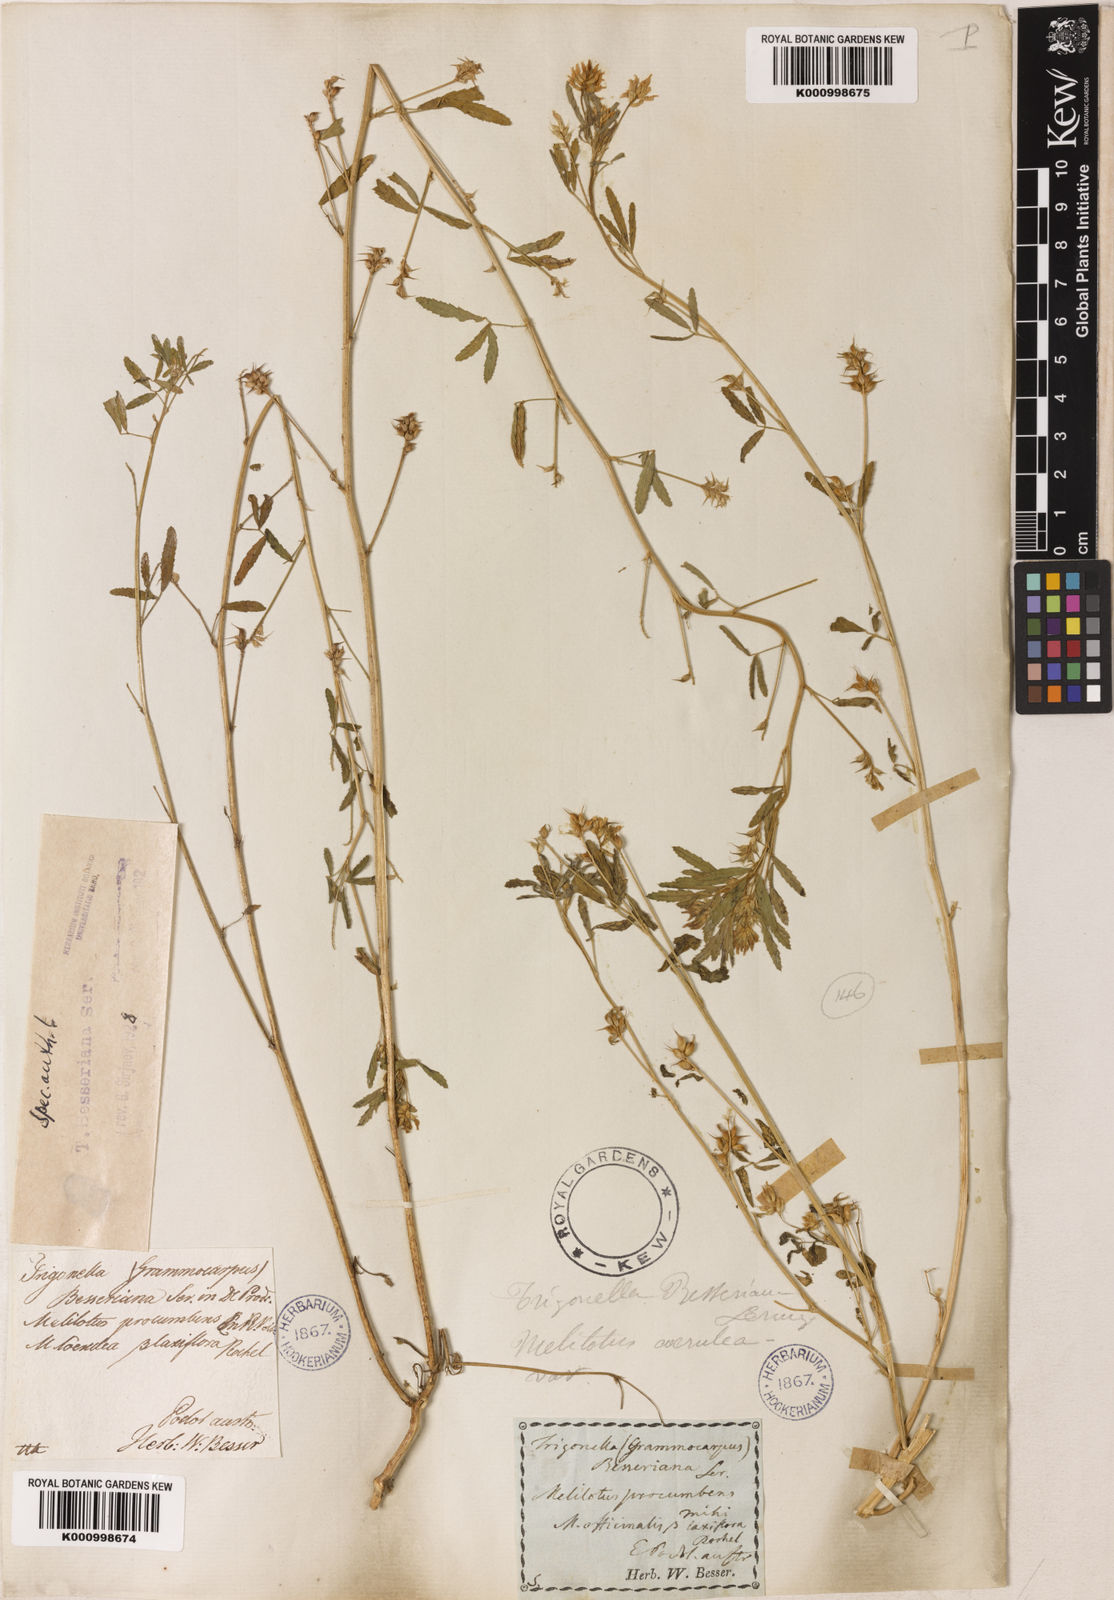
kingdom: Plantae
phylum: Tracheophyta
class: Magnoliopsida
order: Fabales
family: Fabaceae
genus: Trigonella
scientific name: Trigonella procumbens
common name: Trailing fenugreek
